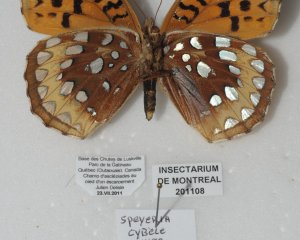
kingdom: Animalia
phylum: Arthropoda
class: Insecta
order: Lepidoptera
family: Nymphalidae
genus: Speyeria
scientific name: Speyeria cybele
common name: Great Spangled Fritillary
